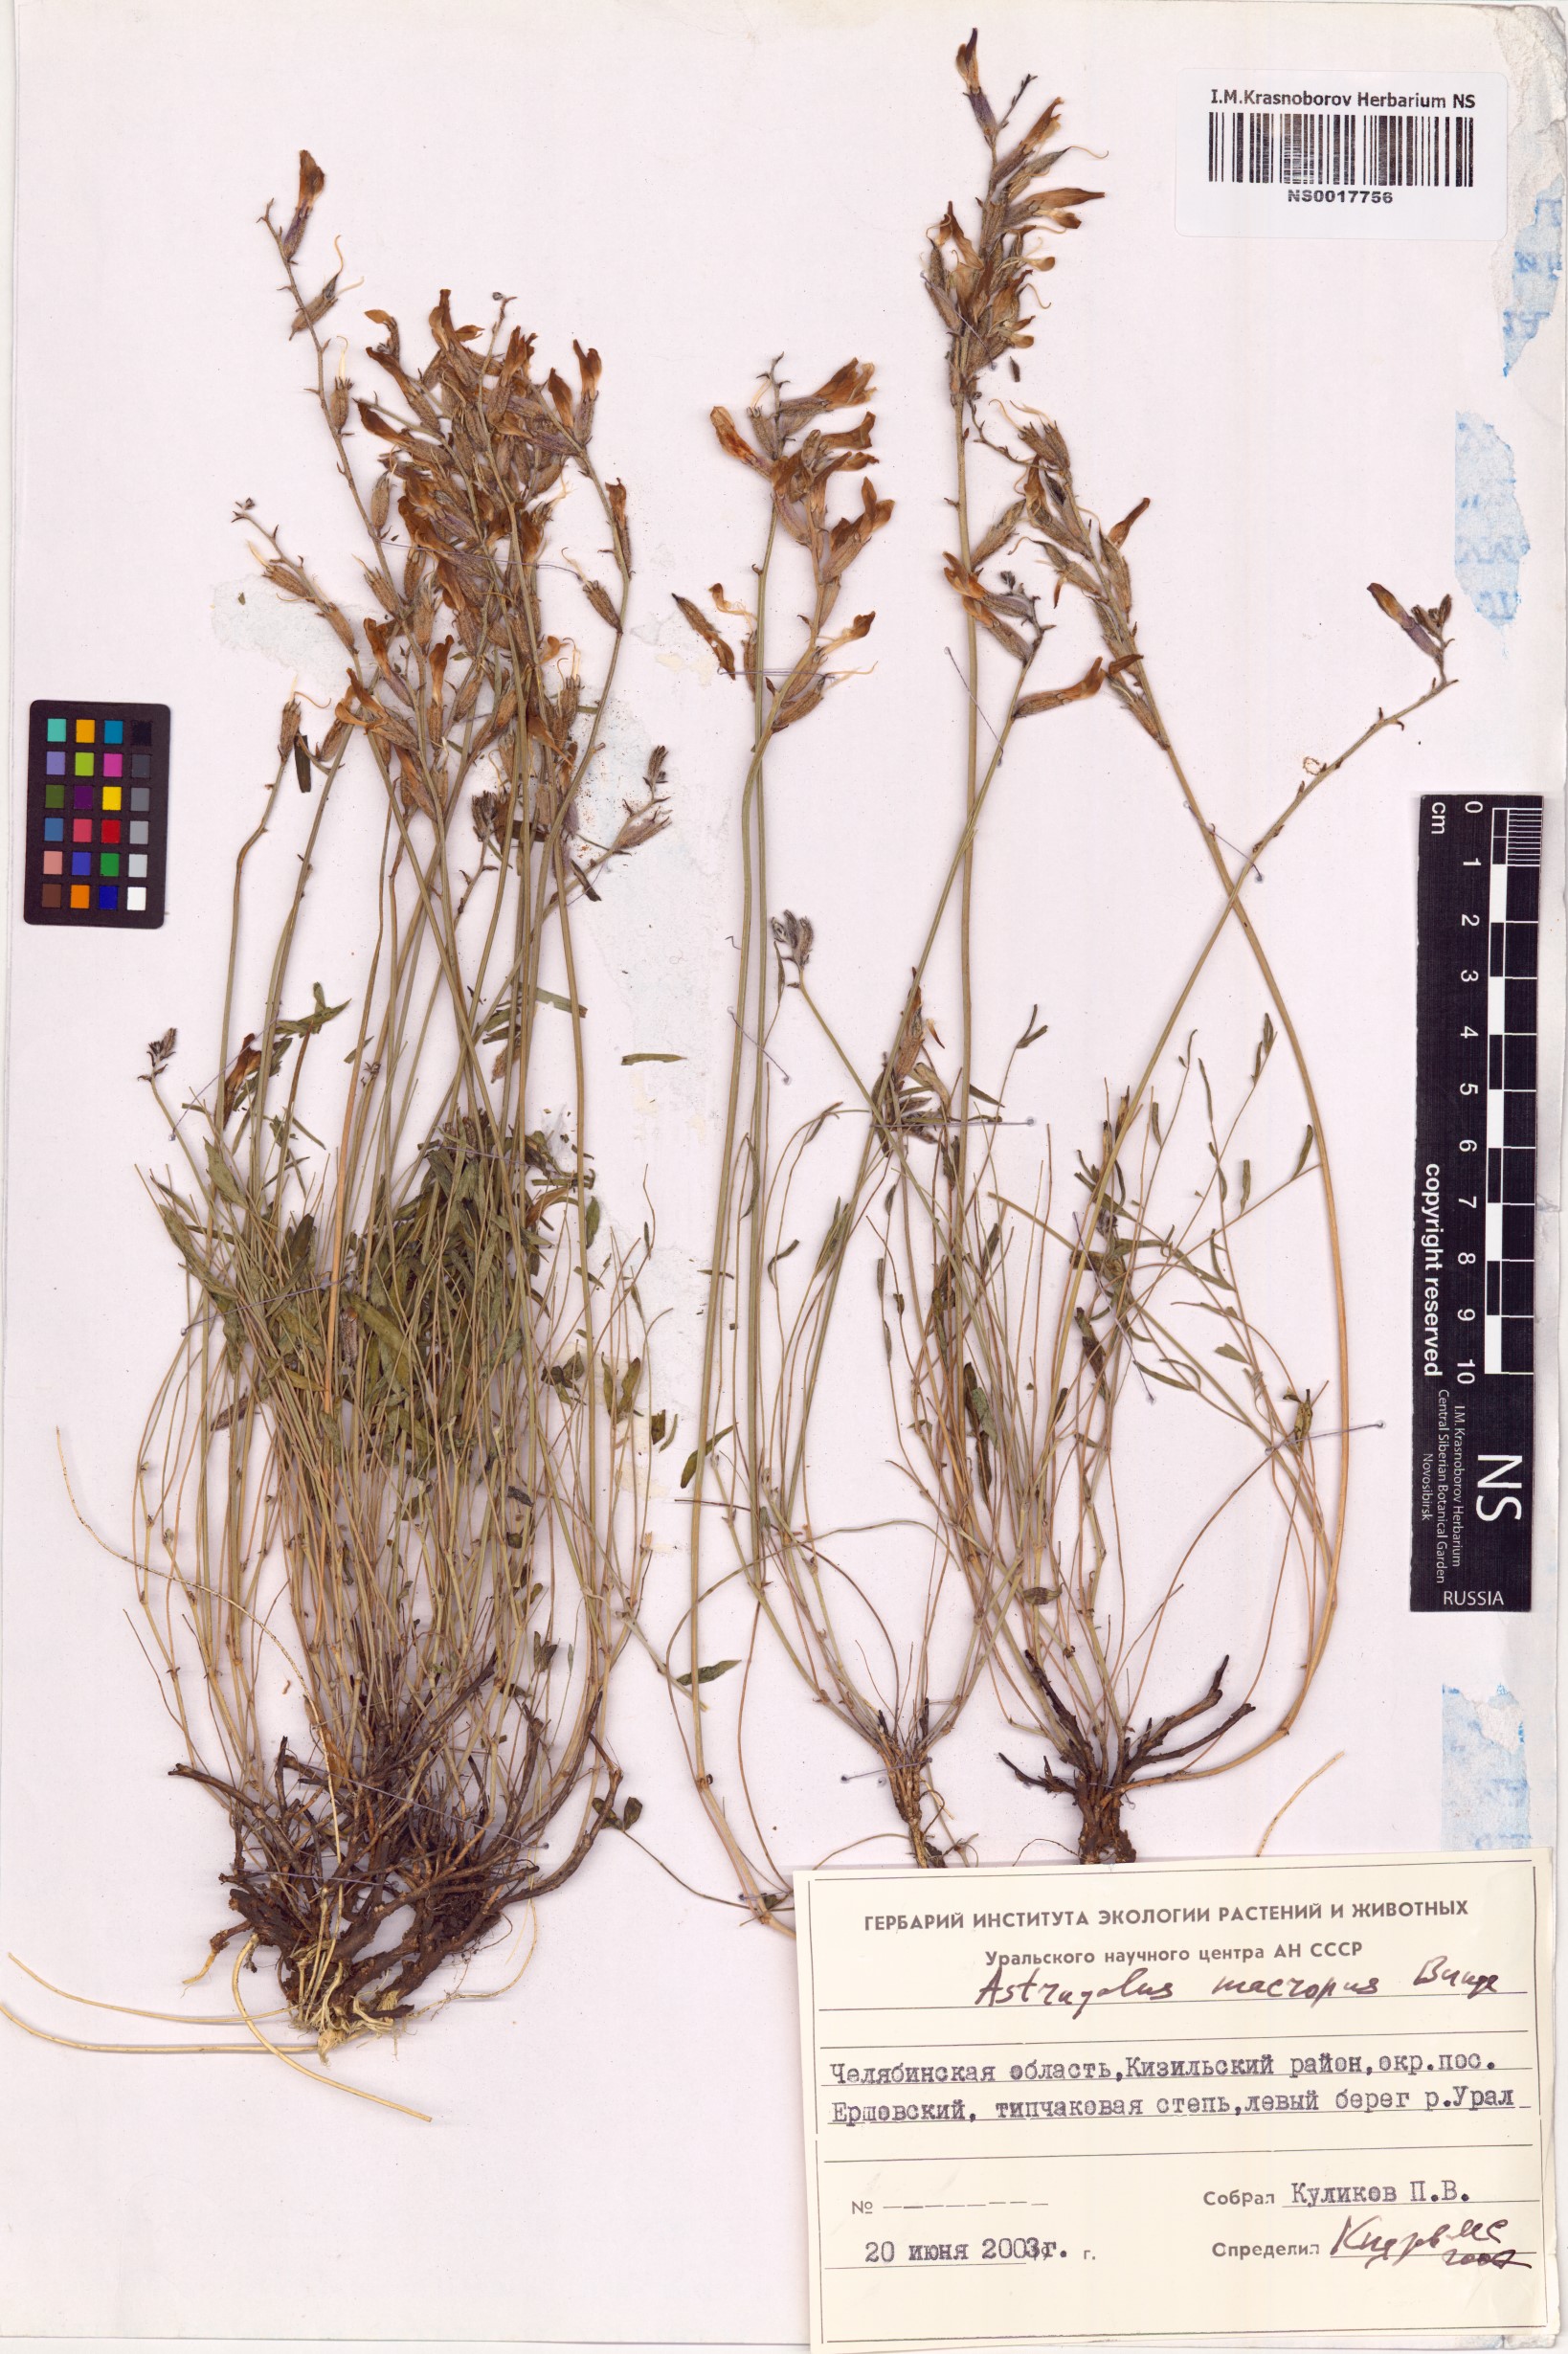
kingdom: Plantae
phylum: Tracheophyta
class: Magnoliopsida
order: Fabales
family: Fabaceae
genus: Astragalus
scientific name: Astragalus macropus
